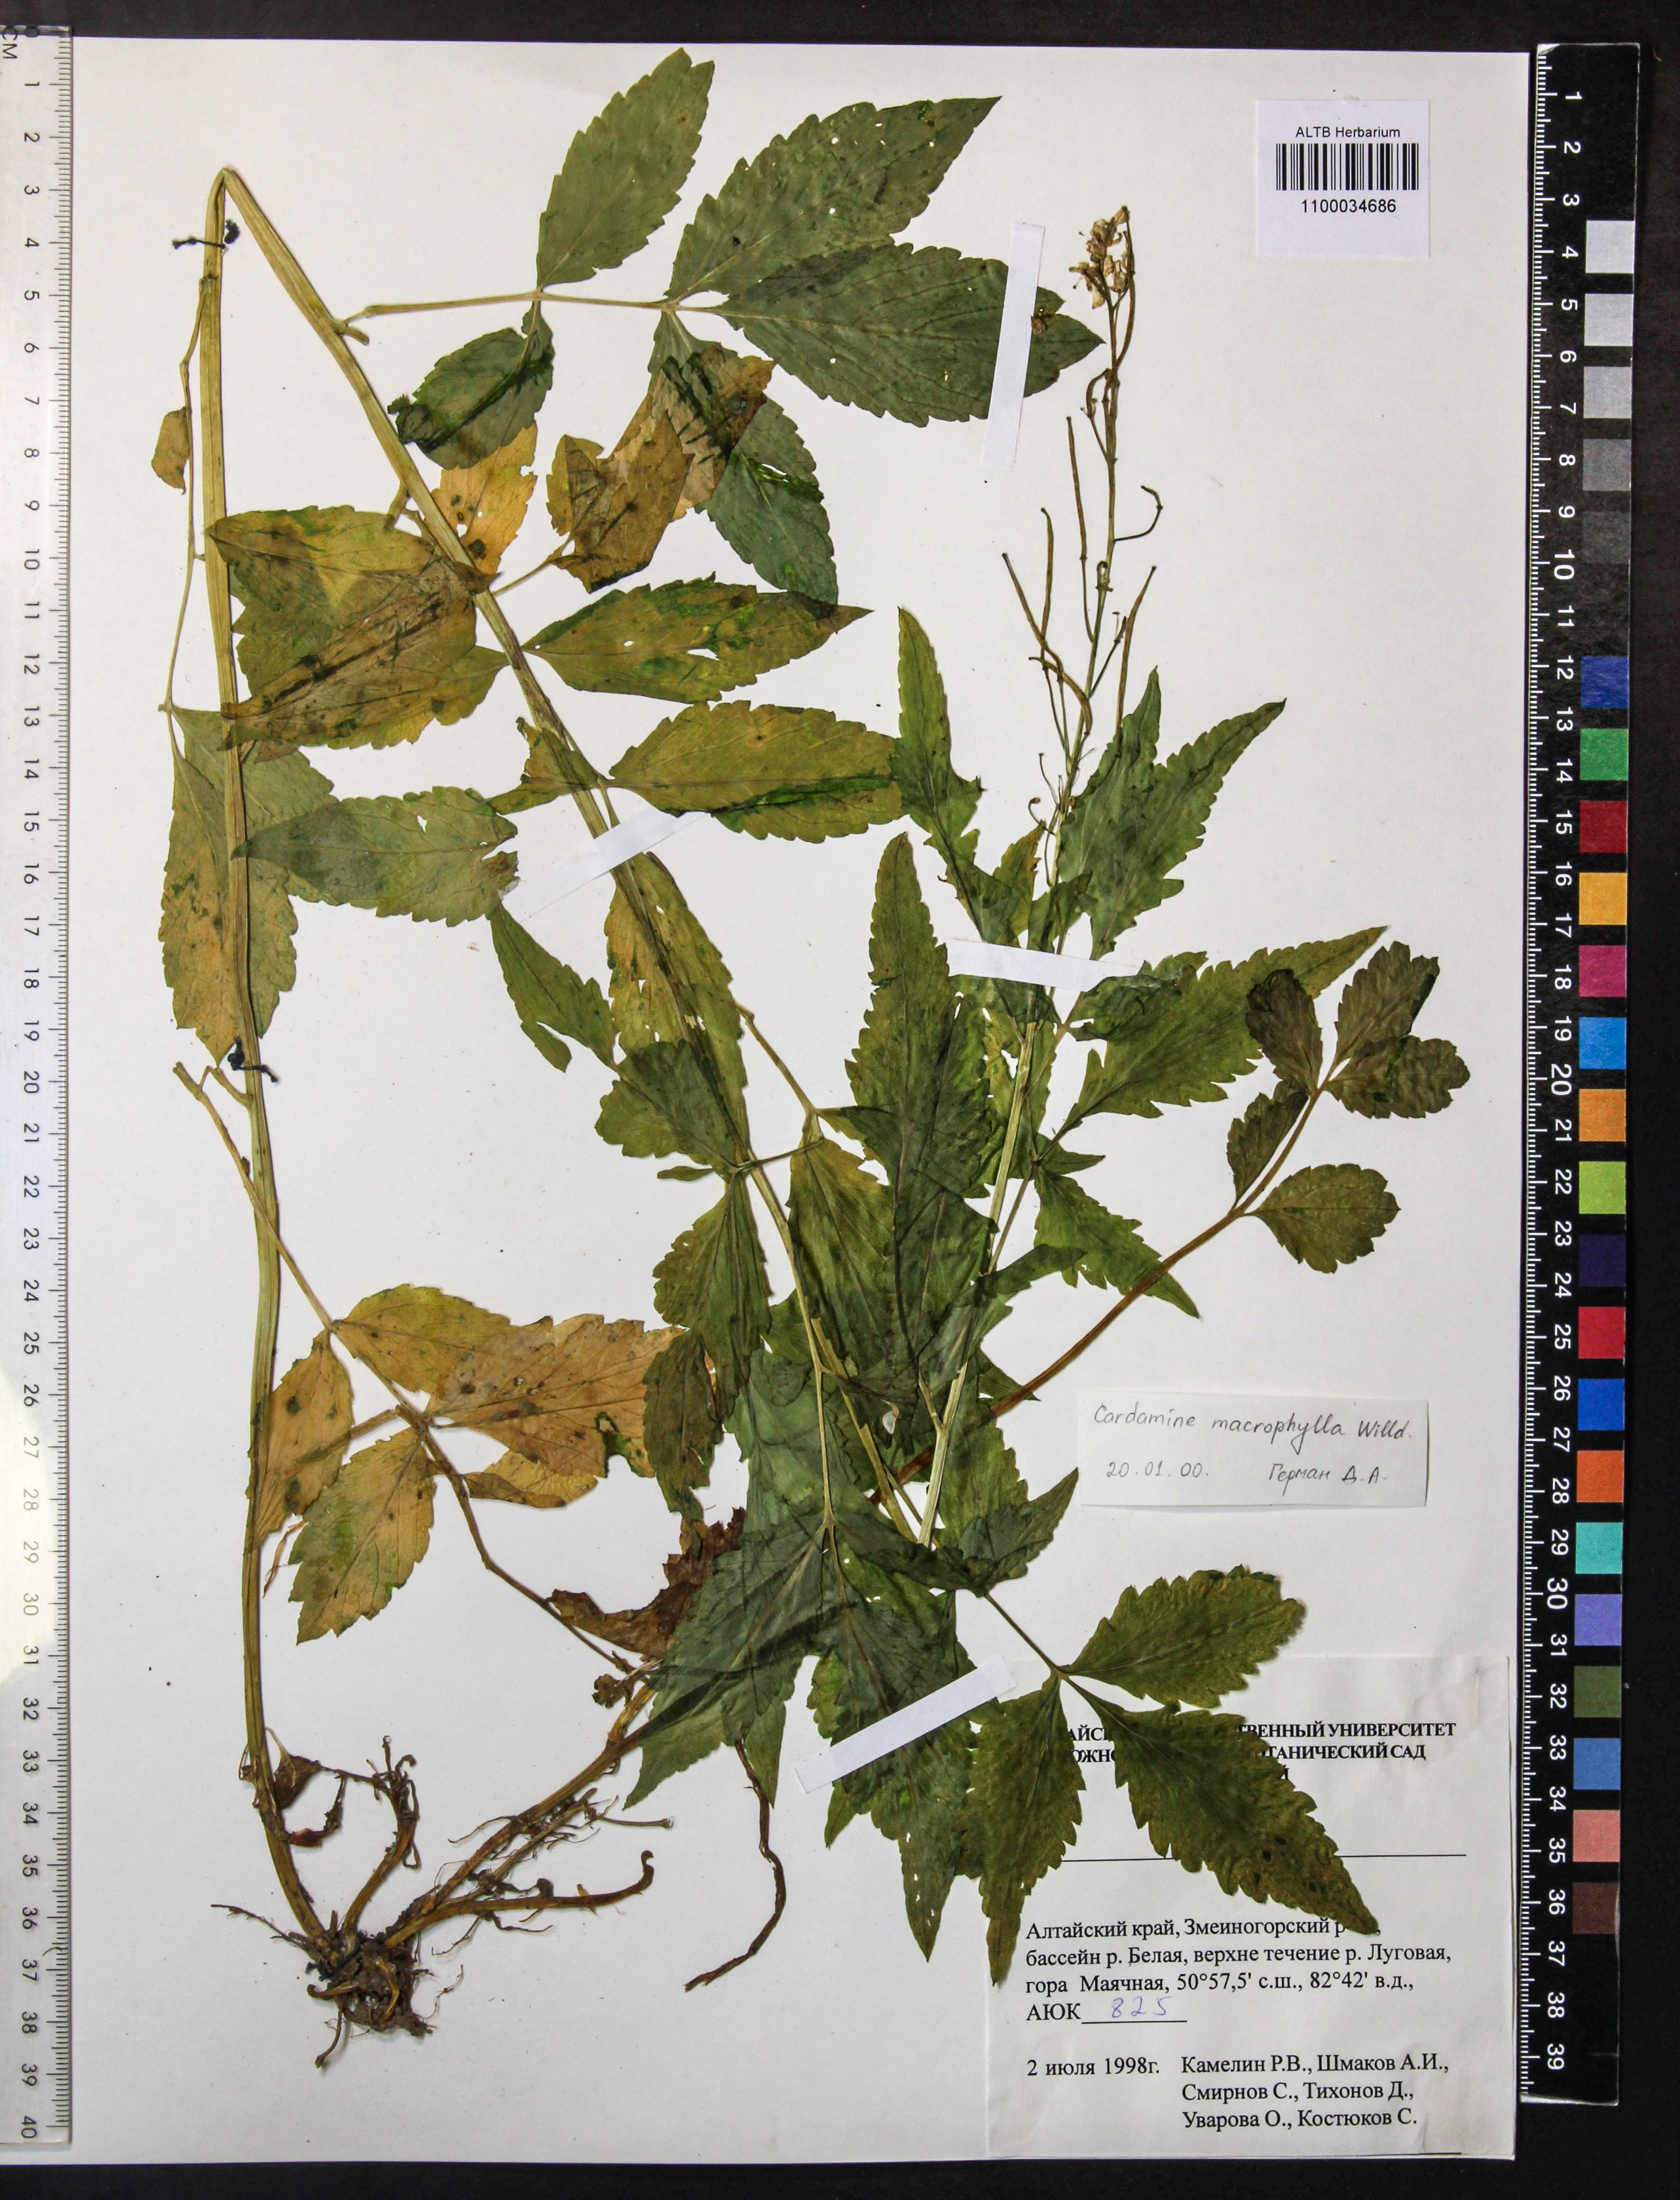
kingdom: Plantae
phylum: Tracheophyta
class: Magnoliopsida
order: Brassicales
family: Brassicaceae
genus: Cardamine
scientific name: Cardamine macrophylla
